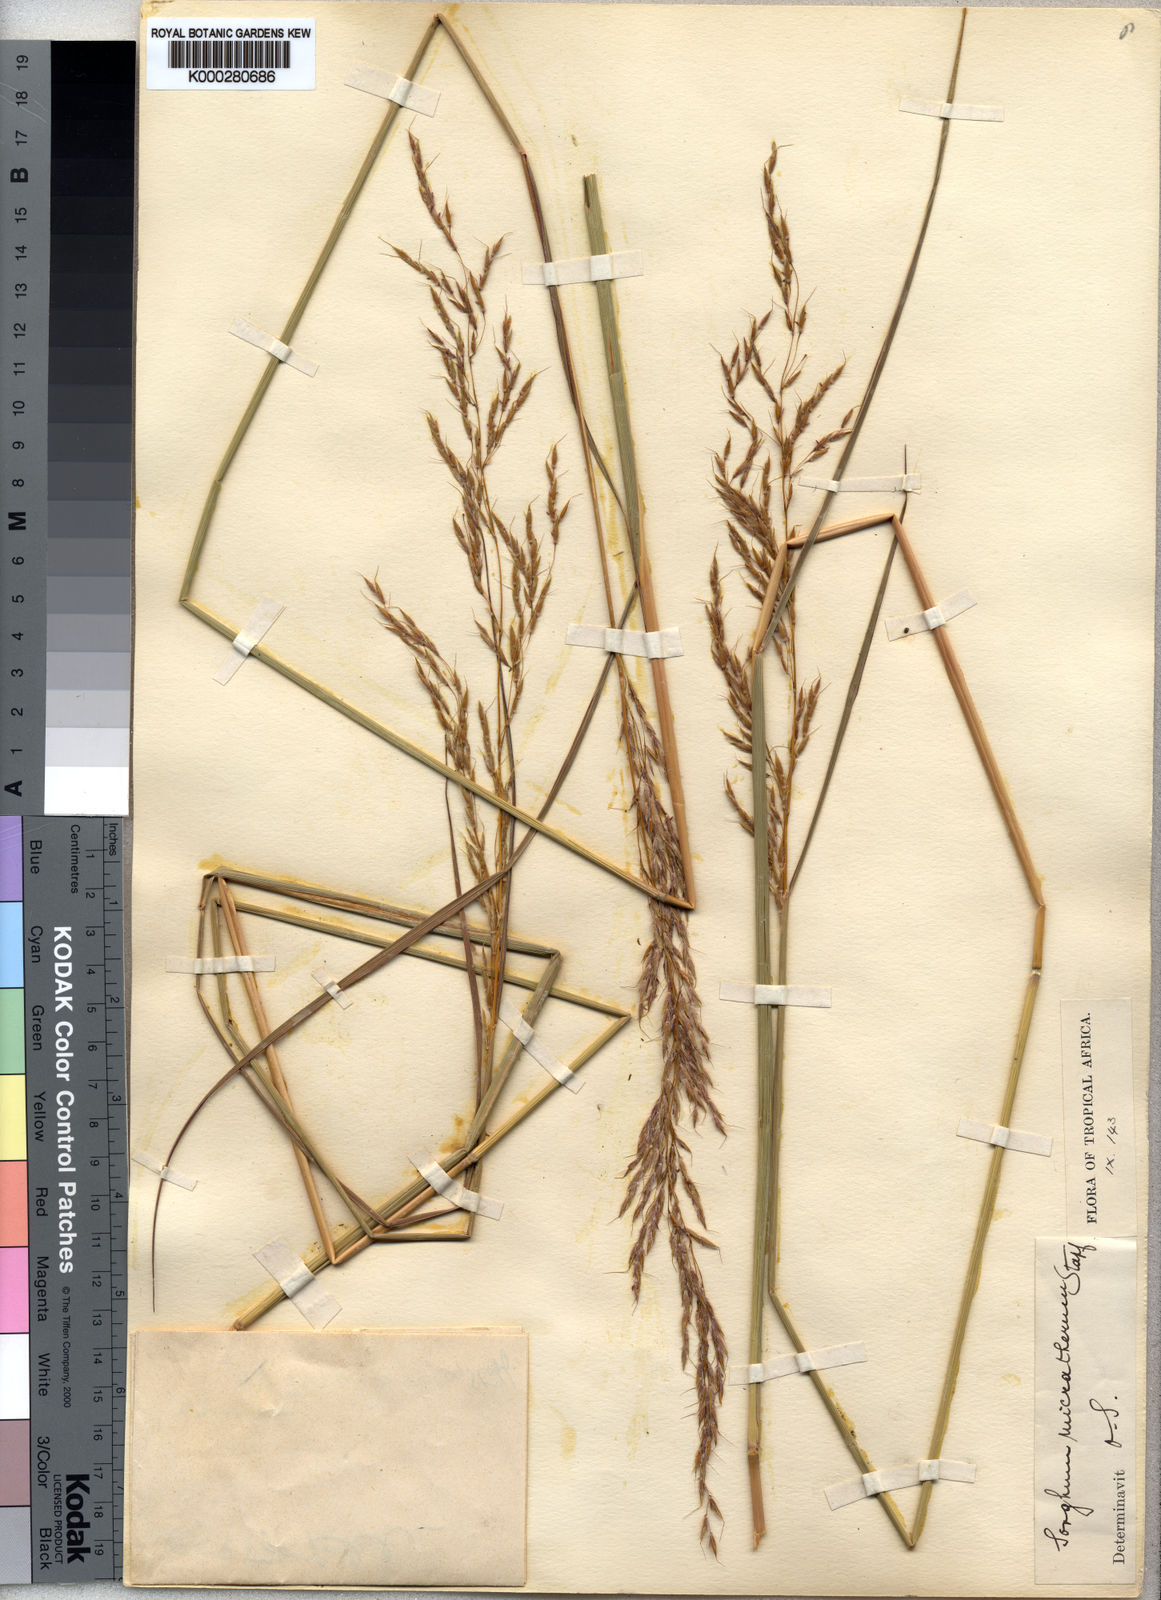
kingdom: Plantae
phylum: Tracheophyta
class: Liliopsida
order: Poales
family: Poaceae
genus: Sorghastrum
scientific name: Sorghastrum nudipes
